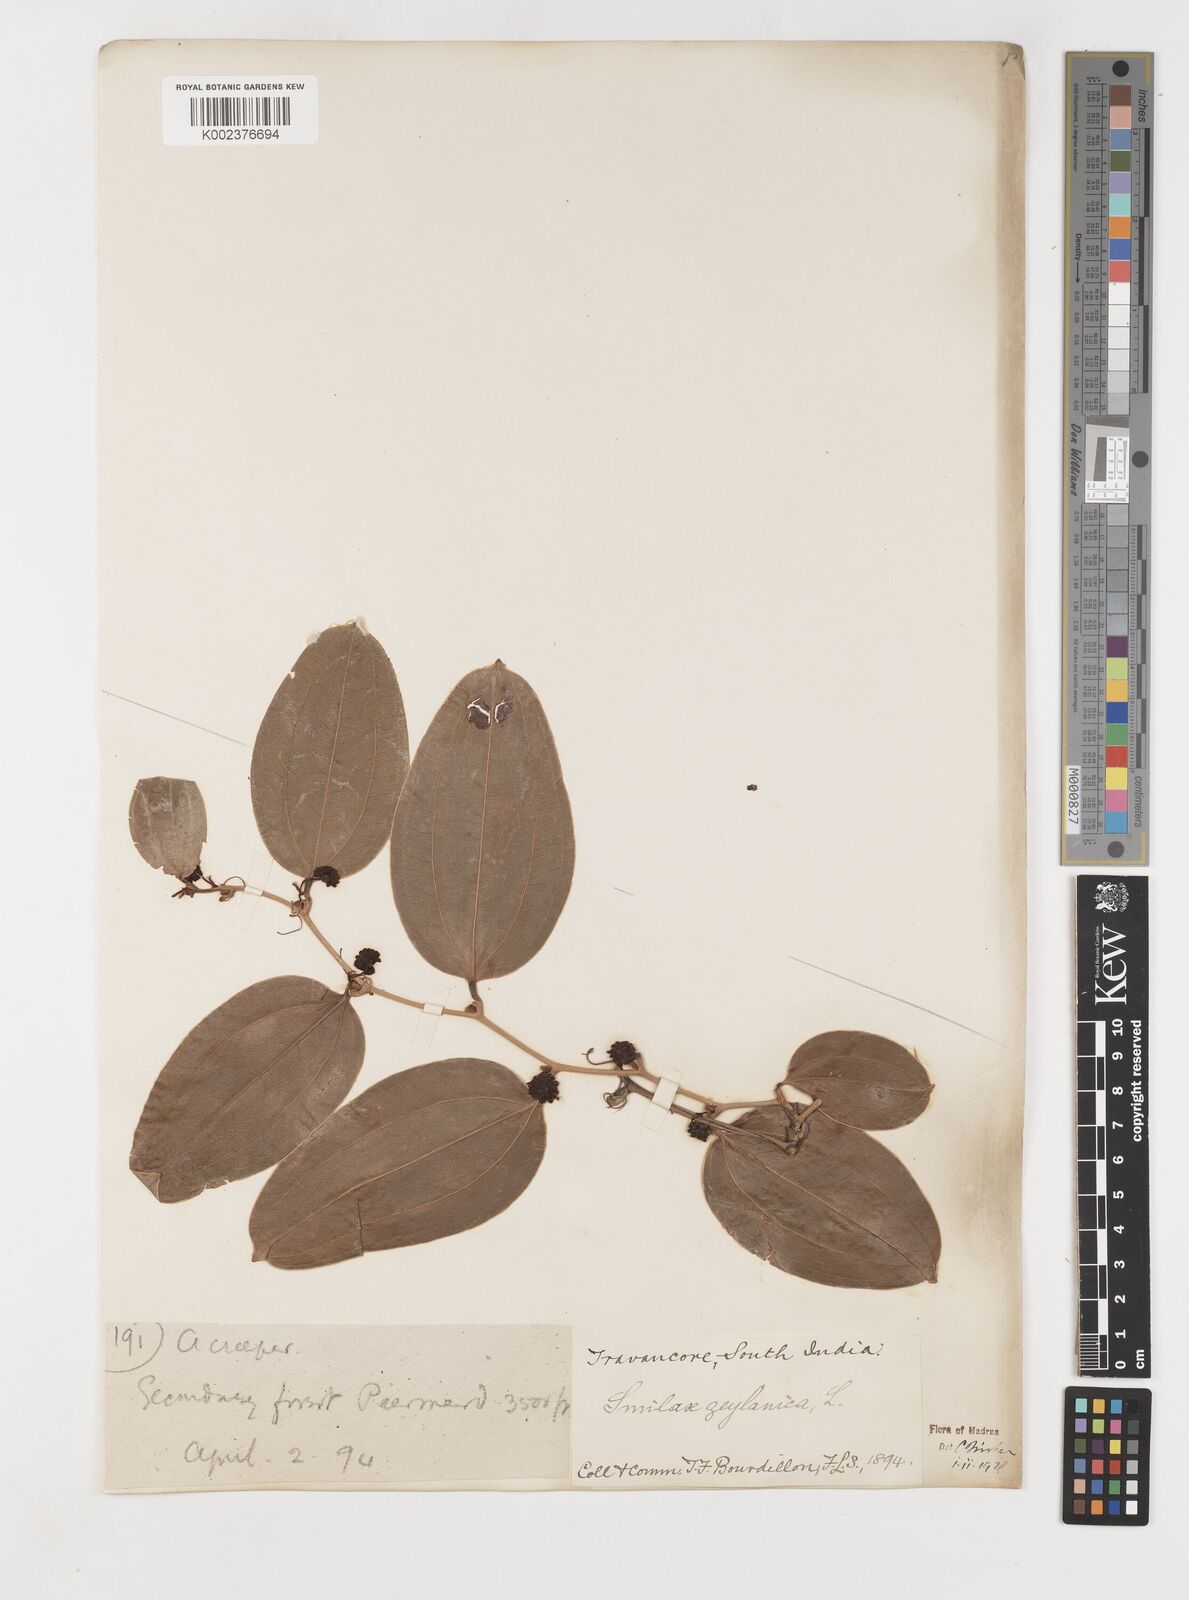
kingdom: Plantae
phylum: Tracheophyta
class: Liliopsida
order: Liliales
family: Smilacaceae
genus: Smilax
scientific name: Smilax zeylanica
